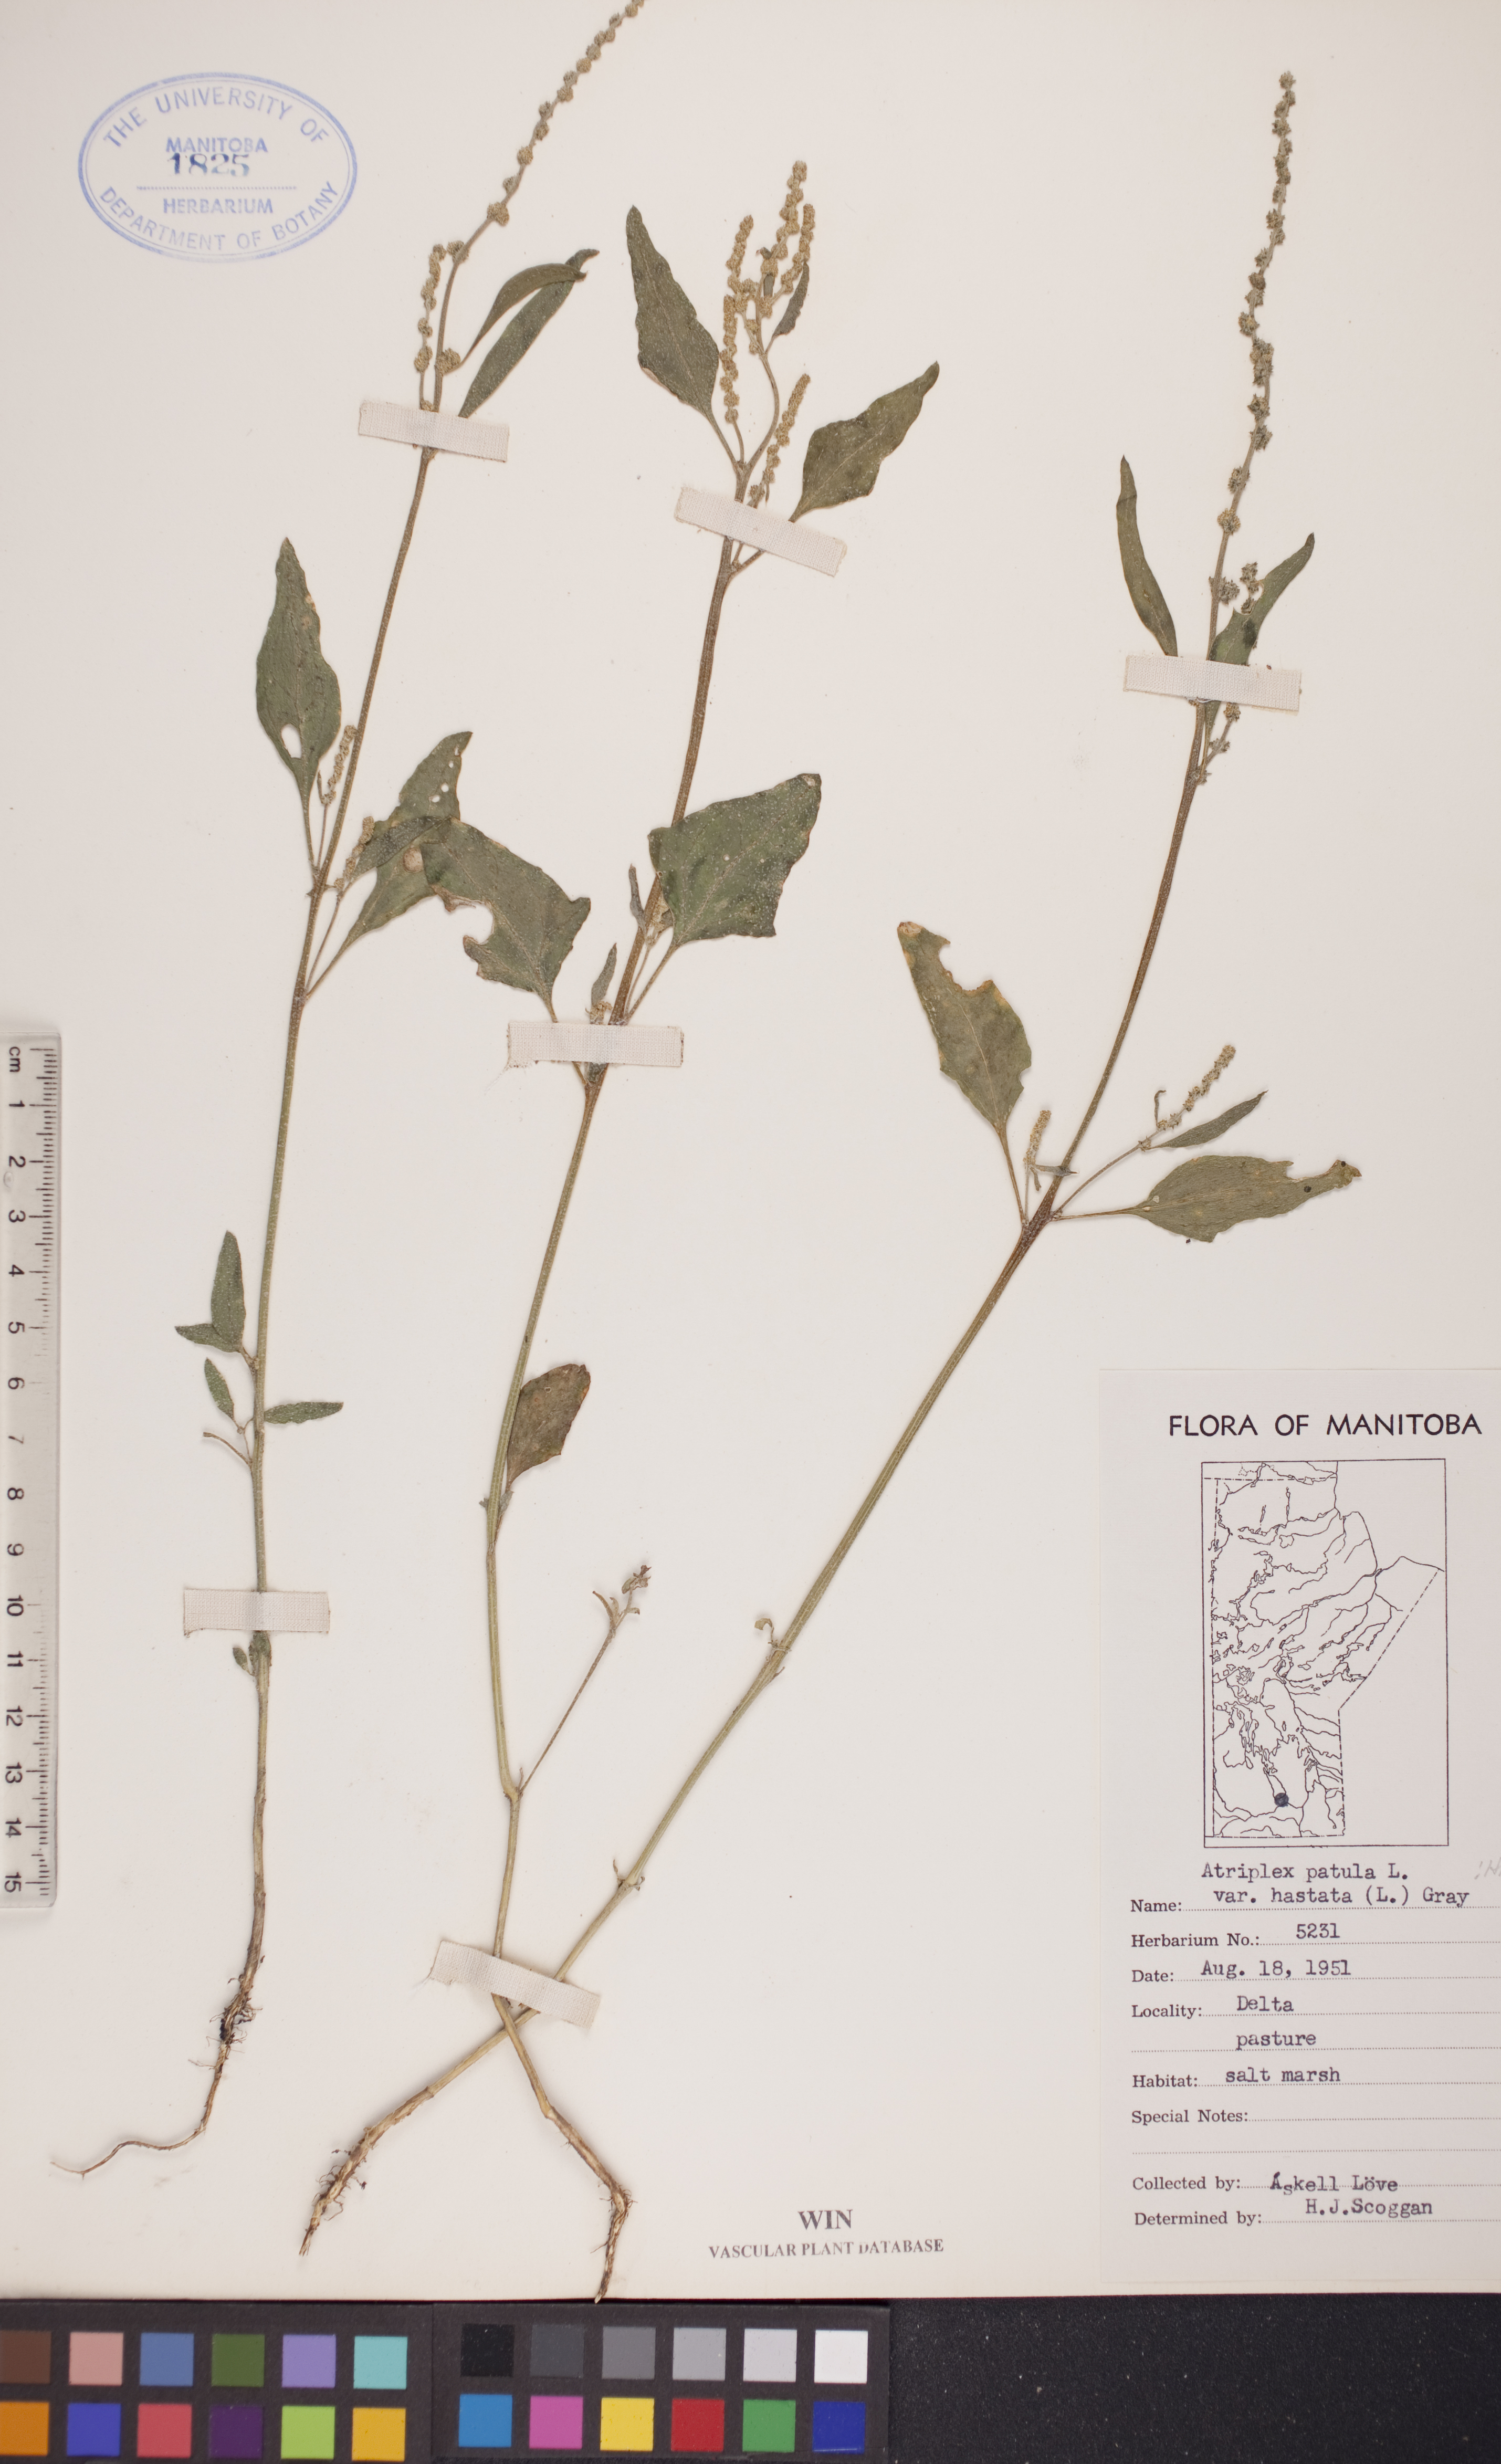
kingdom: Plantae
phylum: Tracheophyta
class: Magnoliopsida
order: Caryophyllales
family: Amaranthaceae
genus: Atriplex
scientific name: Atriplex
